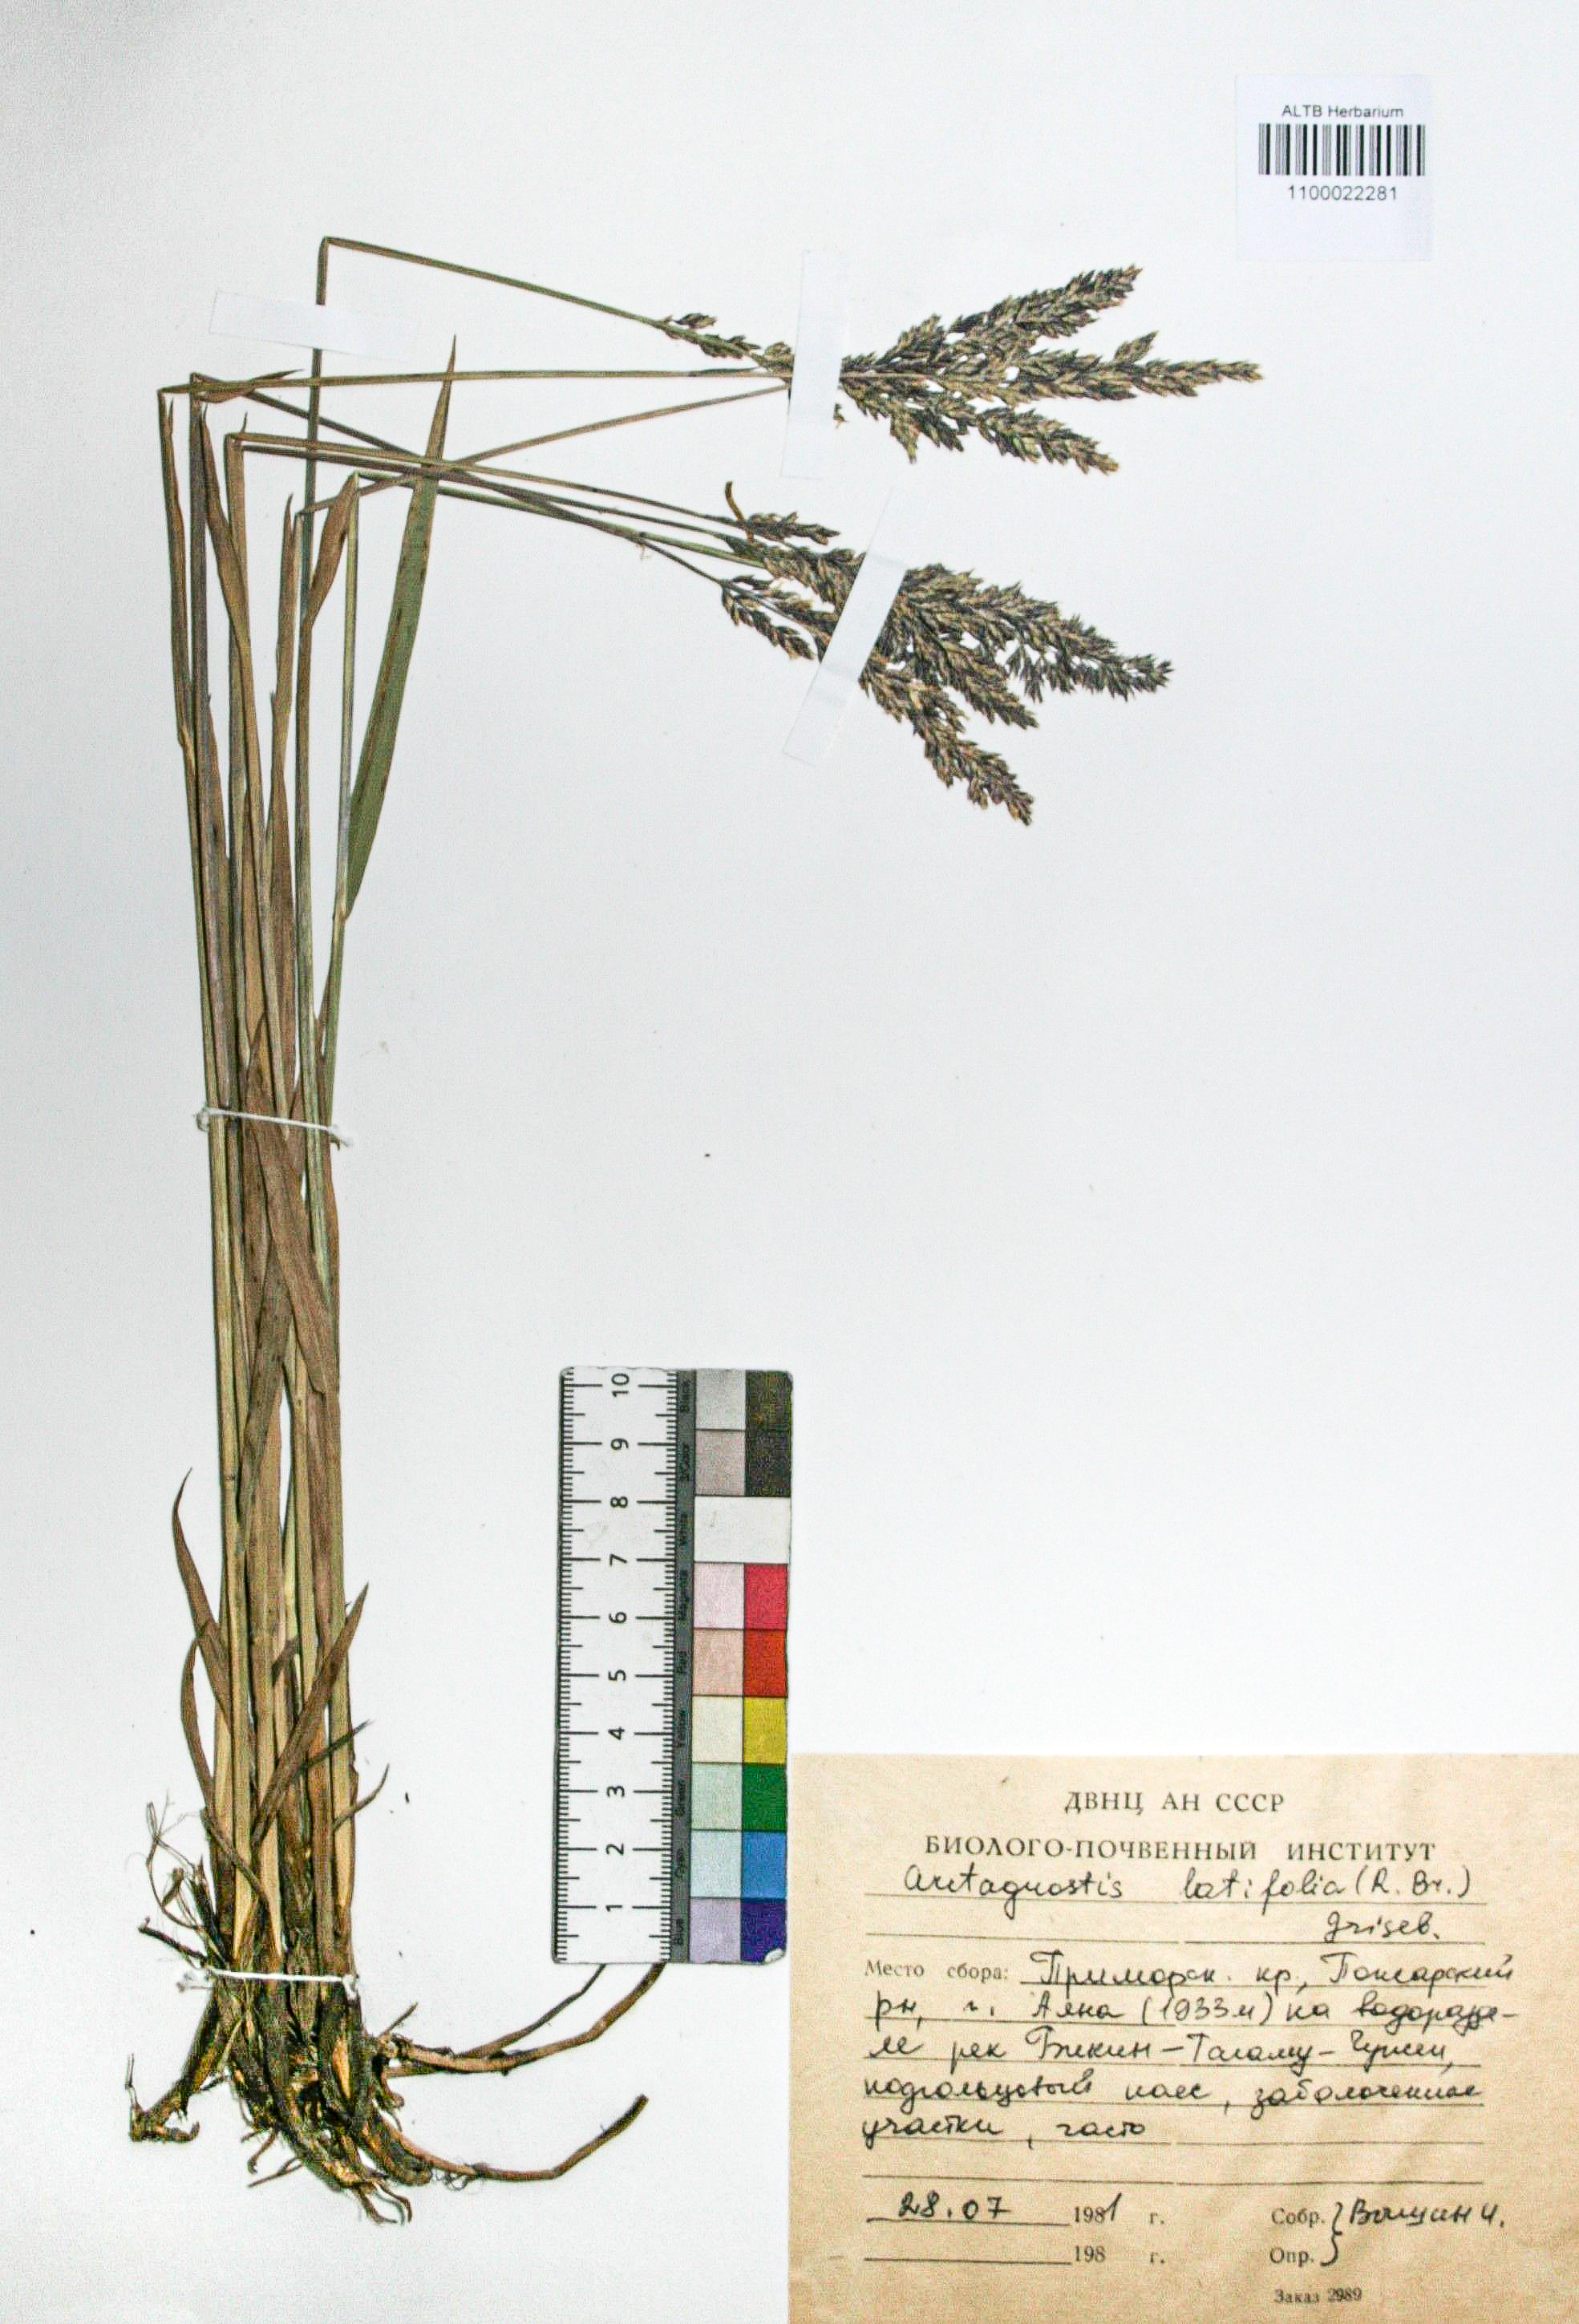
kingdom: Plantae
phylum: Tracheophyta
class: Liliopsida
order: Poales
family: Poaceae
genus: Arctagrostis
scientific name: Arctagrostis latifolia
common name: Arctic grass
